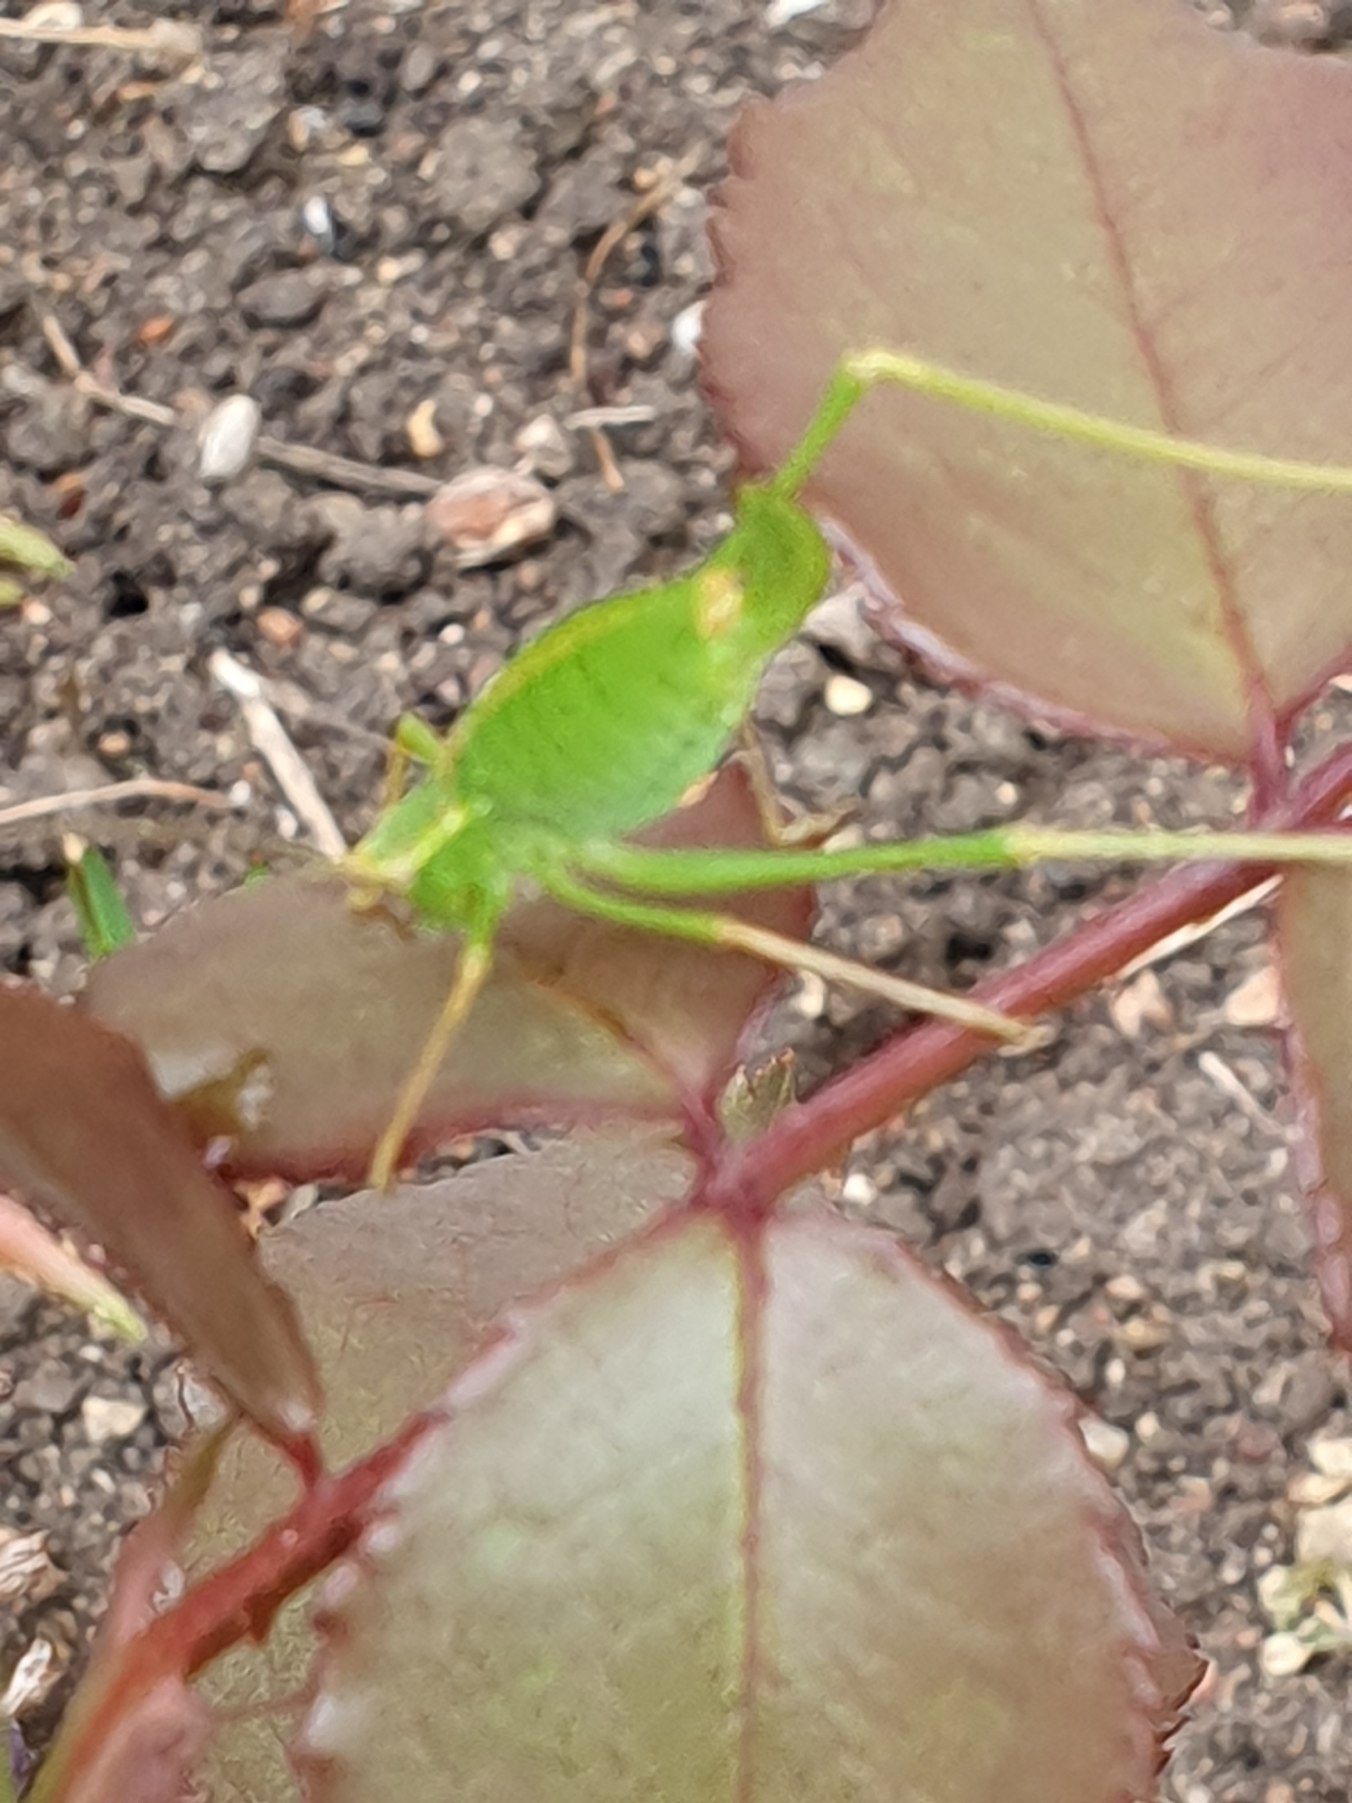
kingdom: Animalia
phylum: Arthropoda
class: Insecta
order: Orthoptera
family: Tettigoniidae
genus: Leptophyes
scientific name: Leptophyes punctatissima
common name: Krumknivgræshoppe
